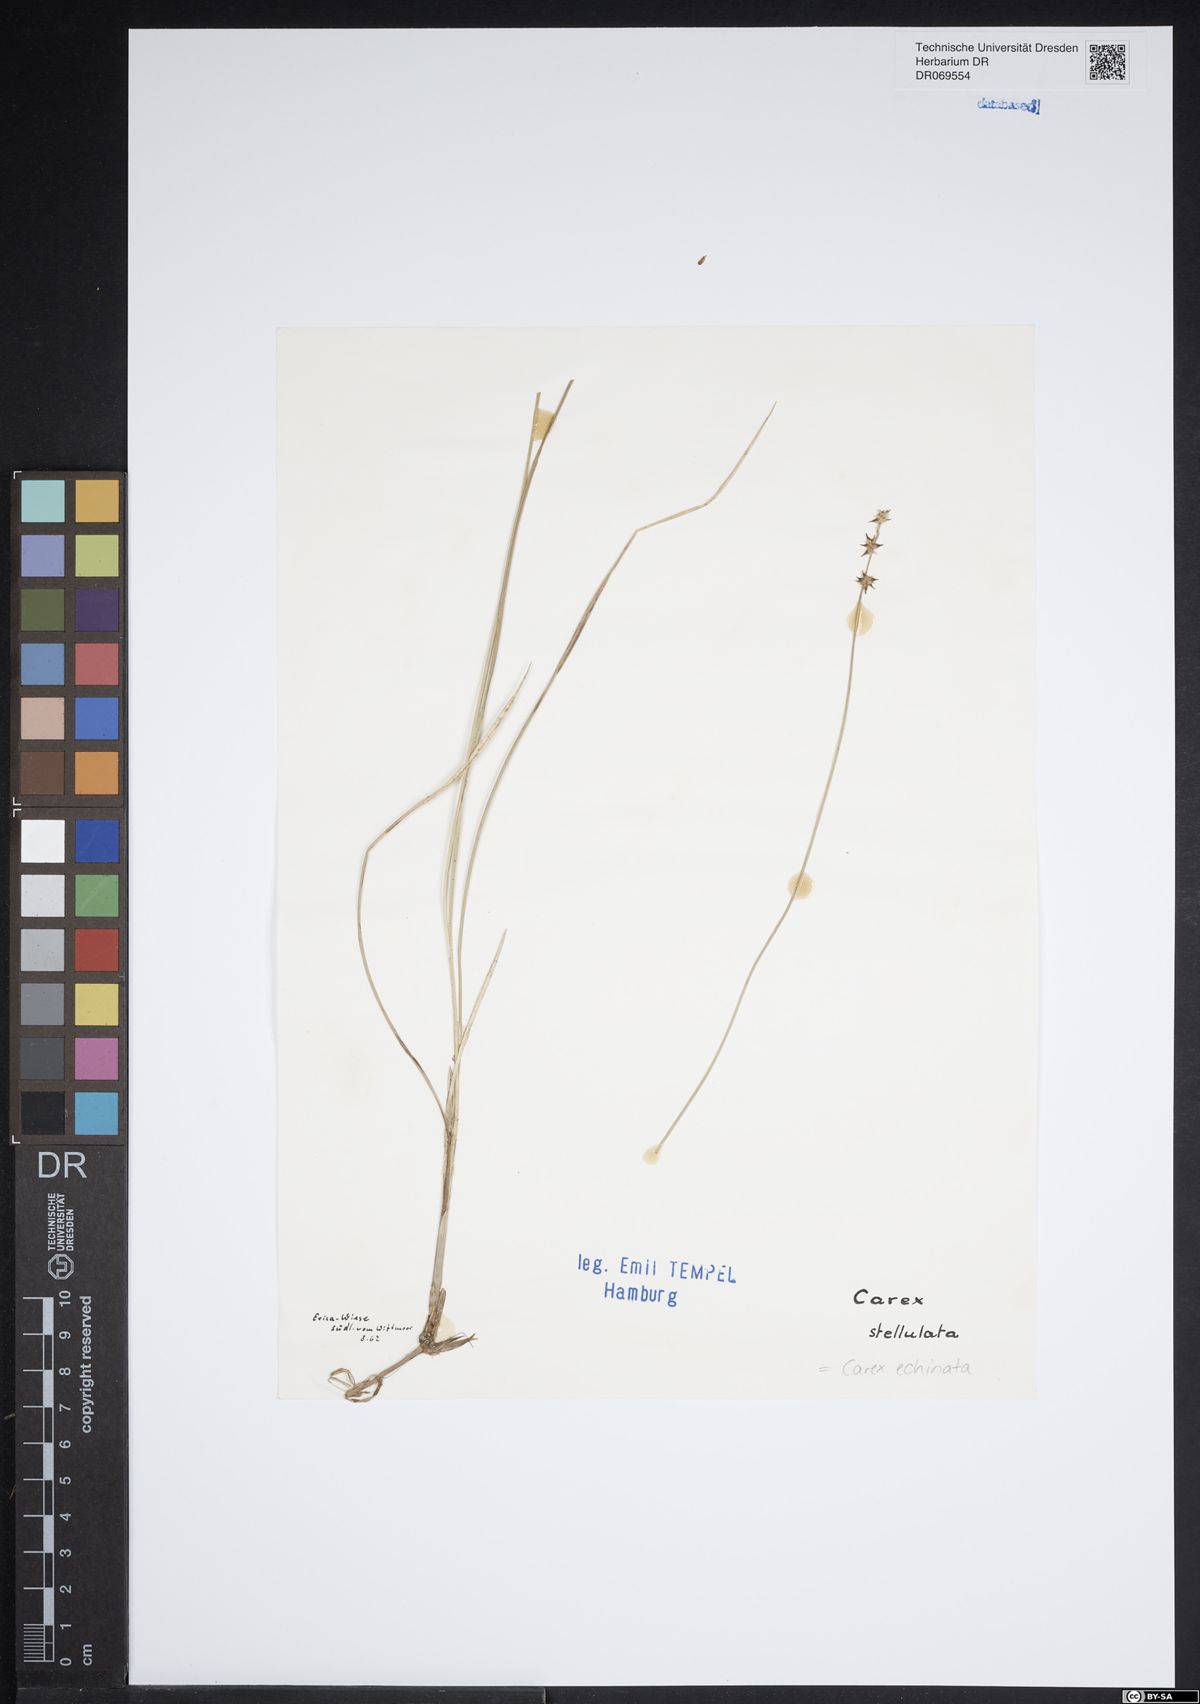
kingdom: Plantae
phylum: Tracheophyta
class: Liliopsida
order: Poales
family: Cyperaceae
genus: Carex
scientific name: Carex echinata
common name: Star sedge
